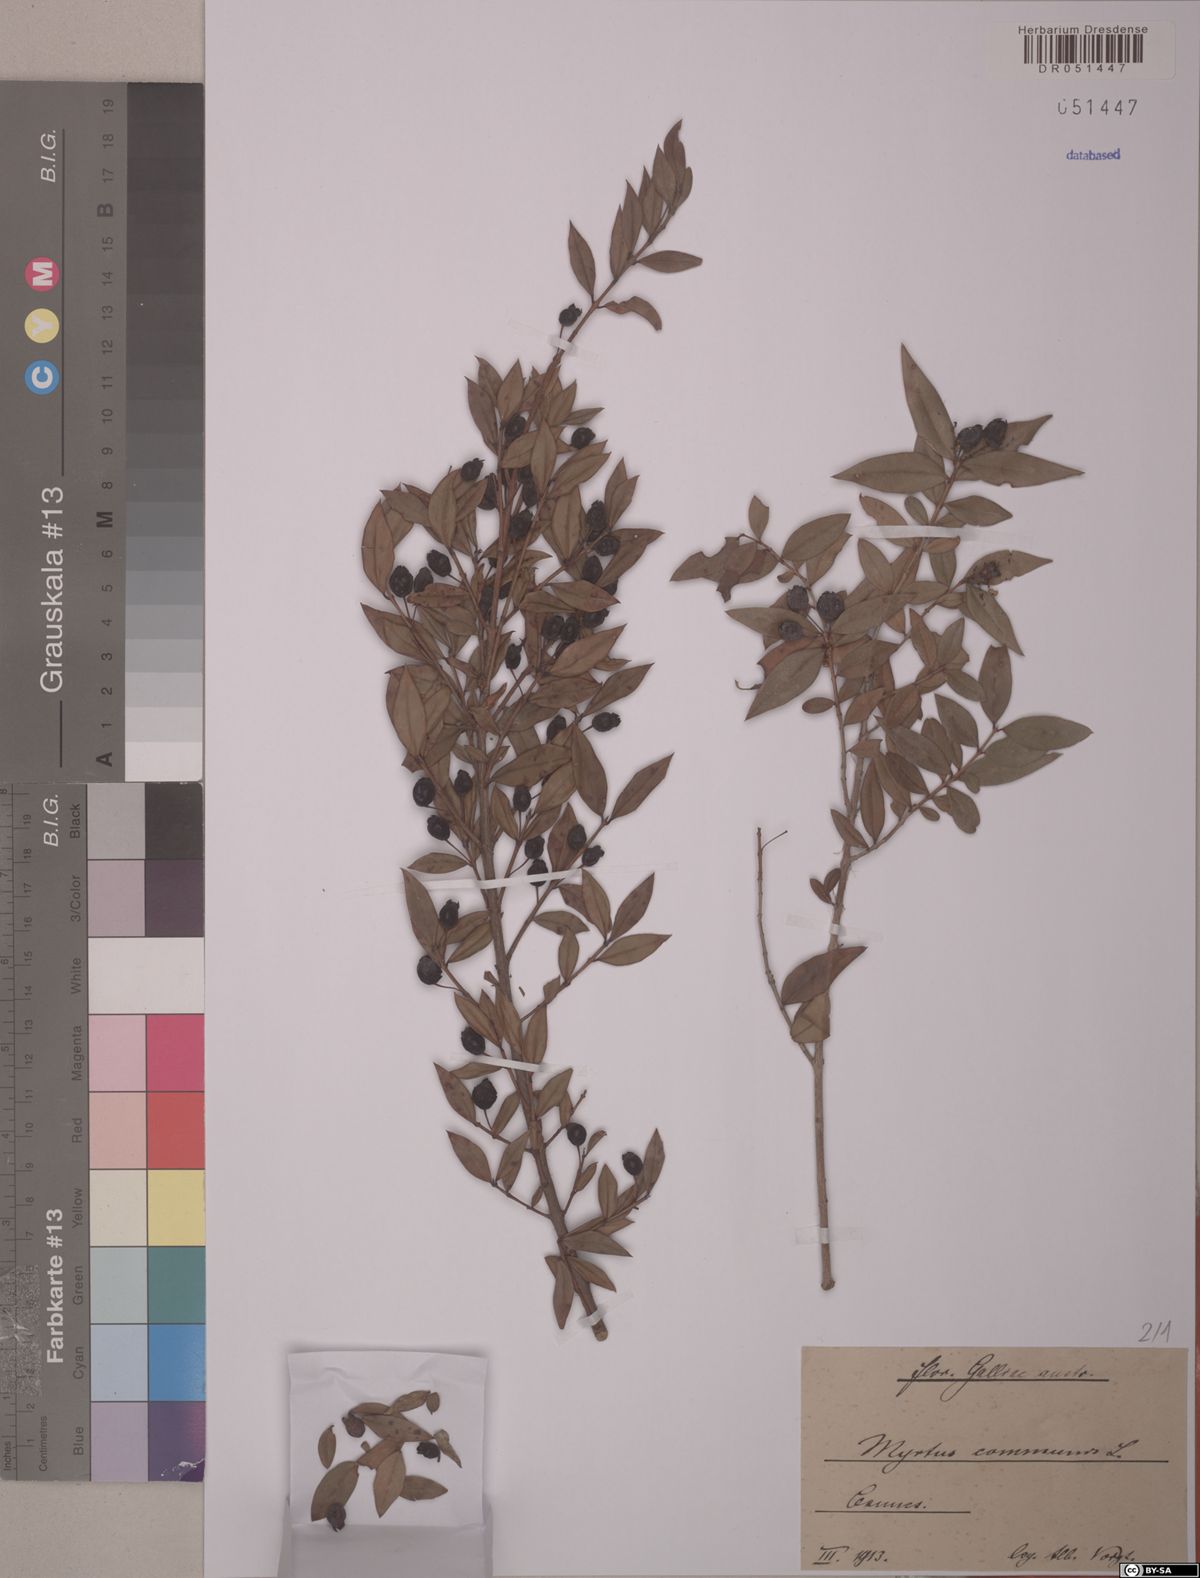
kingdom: Plantae
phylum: Tracheophyta
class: Magnoliopsida
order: Myrtales
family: Myrtaceae
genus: Myrtus
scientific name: Myrtus communis
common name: Myrtle
